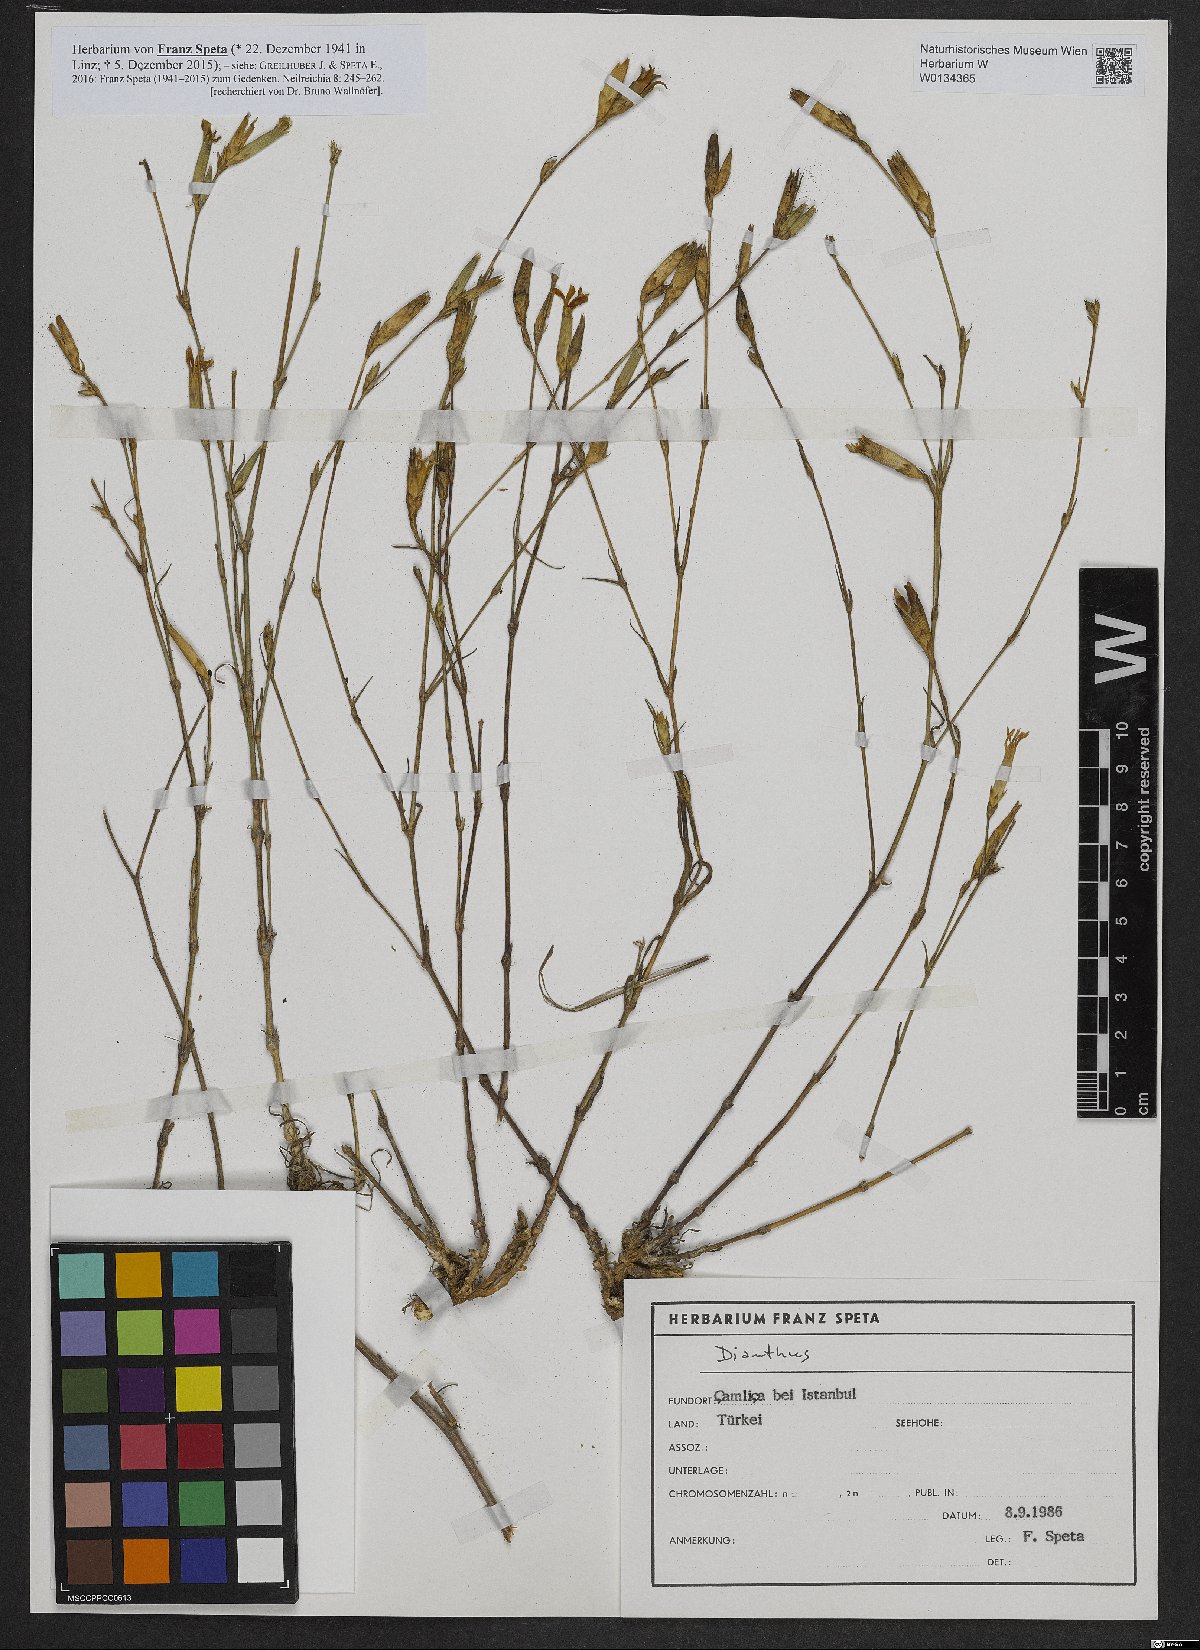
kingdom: Plantae
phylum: Tracheophyta
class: Magnoliopsida
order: Caryophyllales
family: Caryophyllaceae
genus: Dianthus
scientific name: Dianthus
